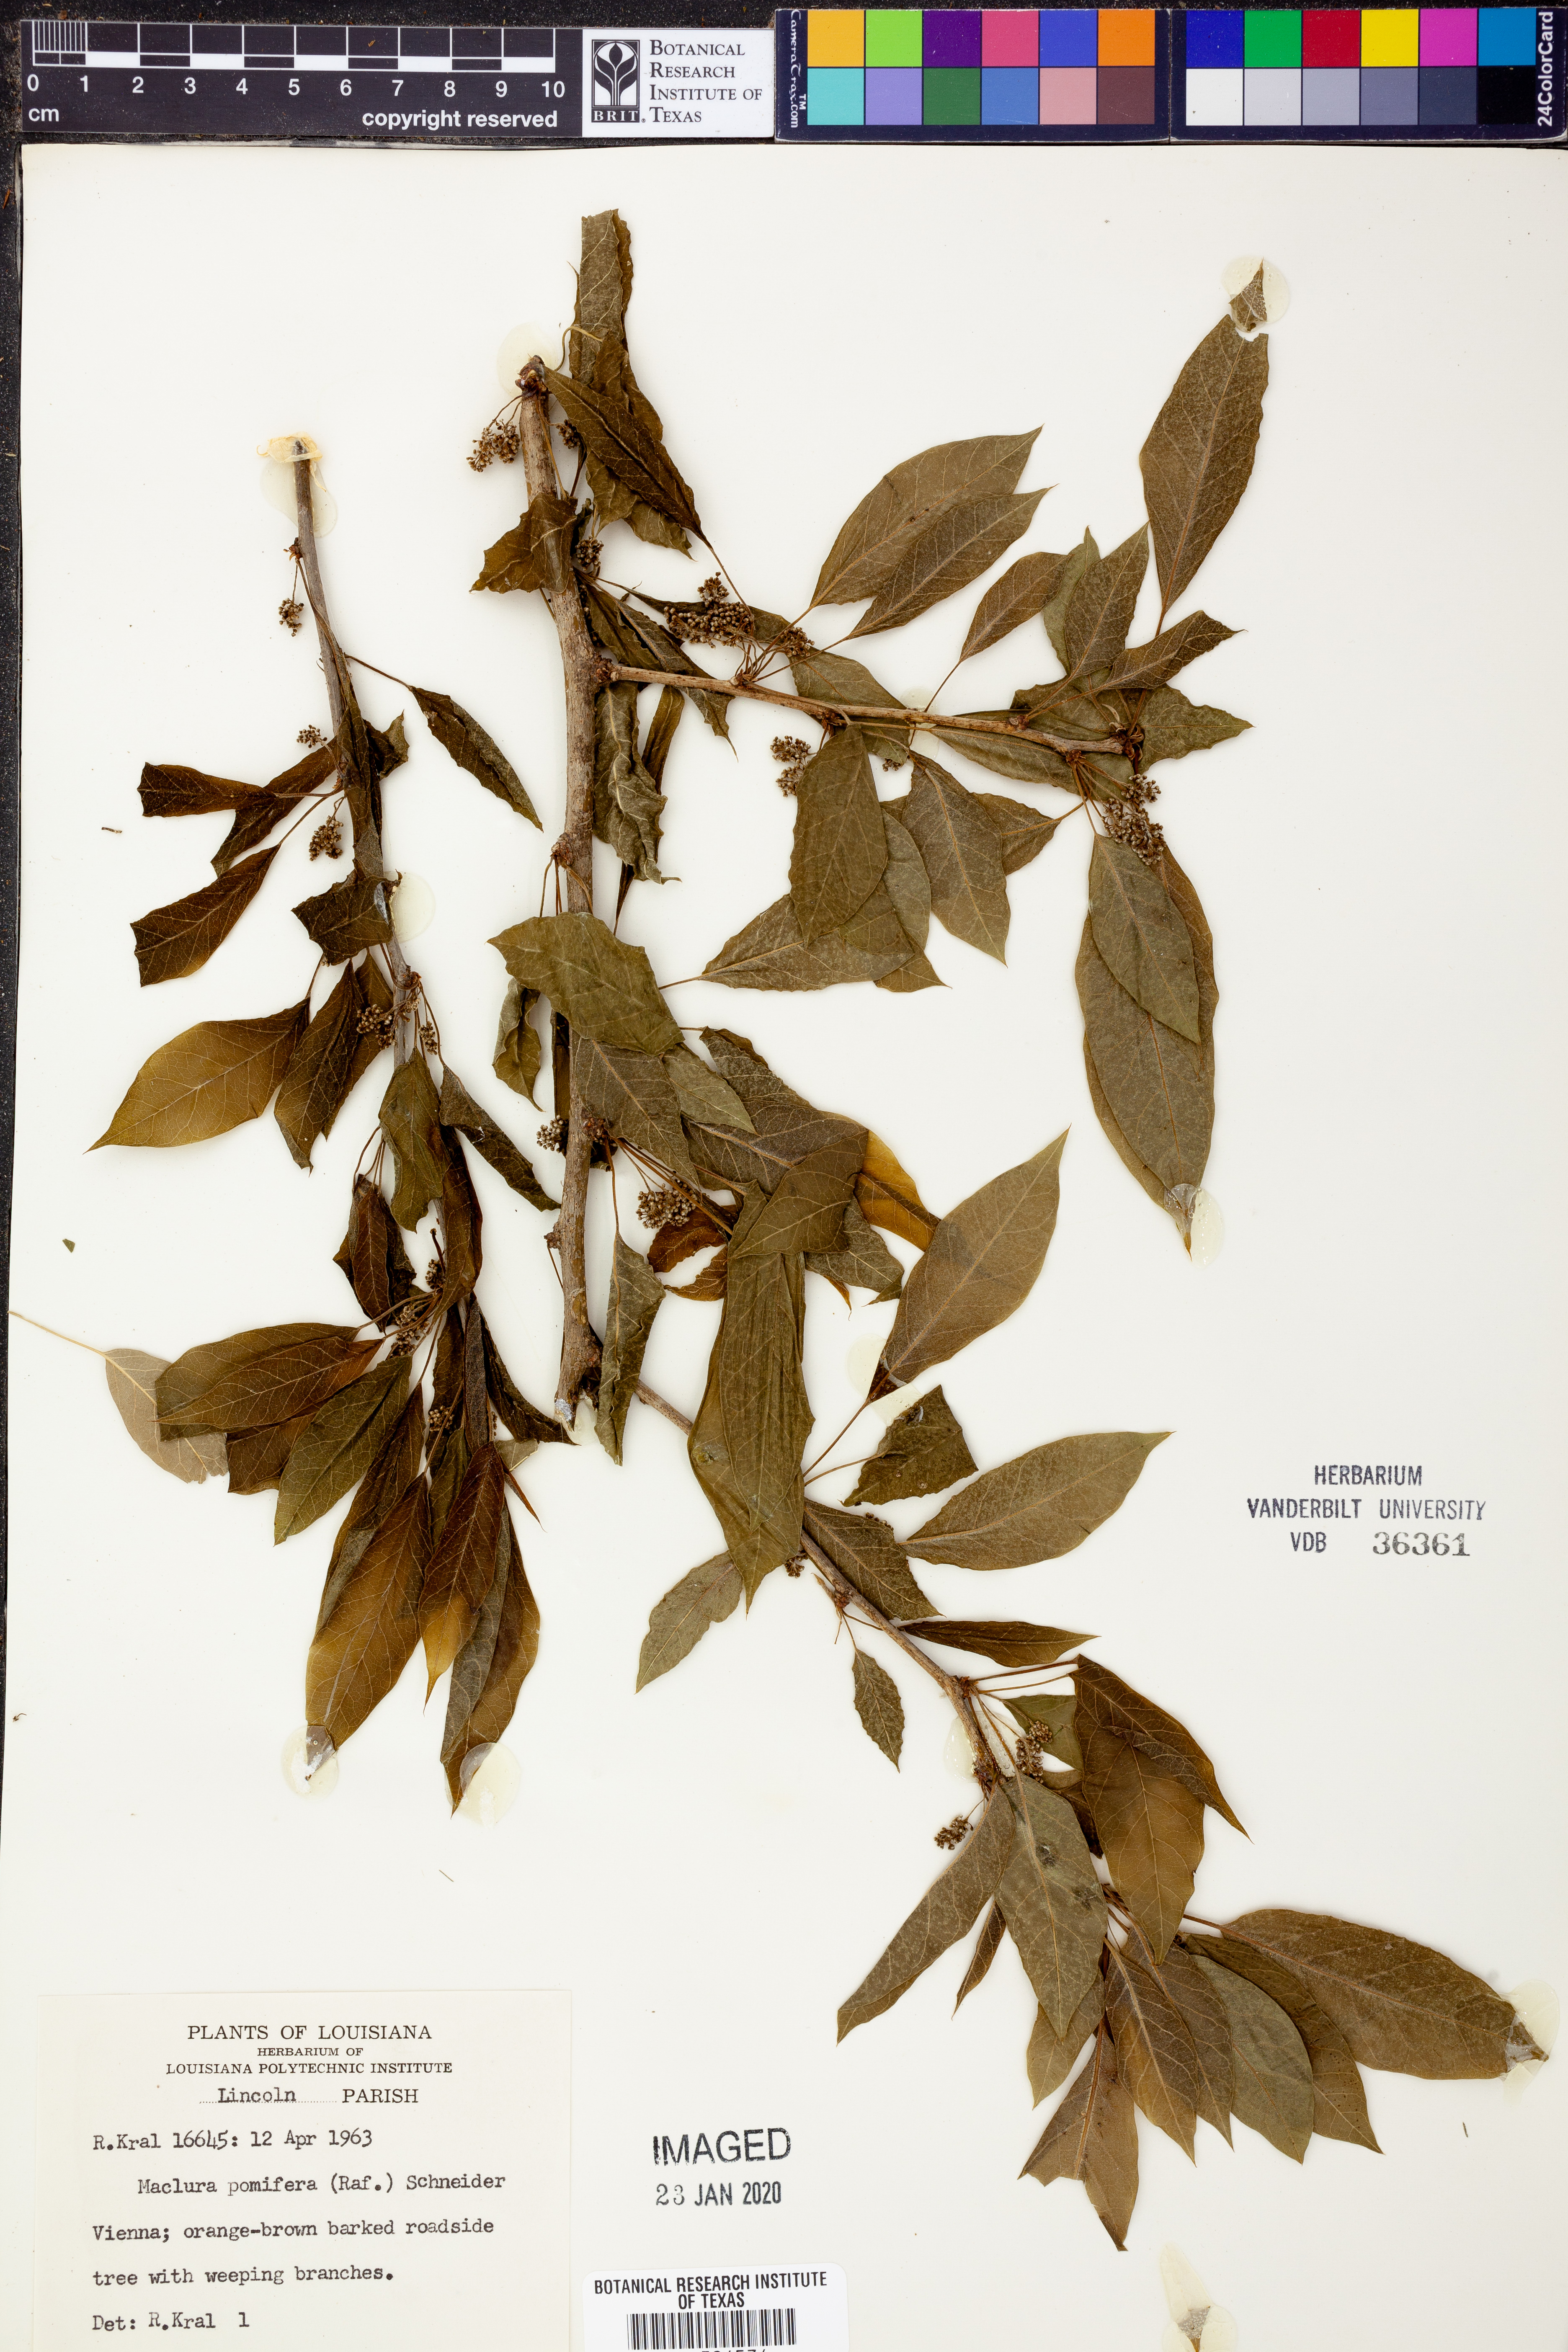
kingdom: Plantae
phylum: Tracheophyta
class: Magnoliopsida
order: Rosales
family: Moraceae
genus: Maclura
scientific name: Maclura pomifera
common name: Osage-orange
